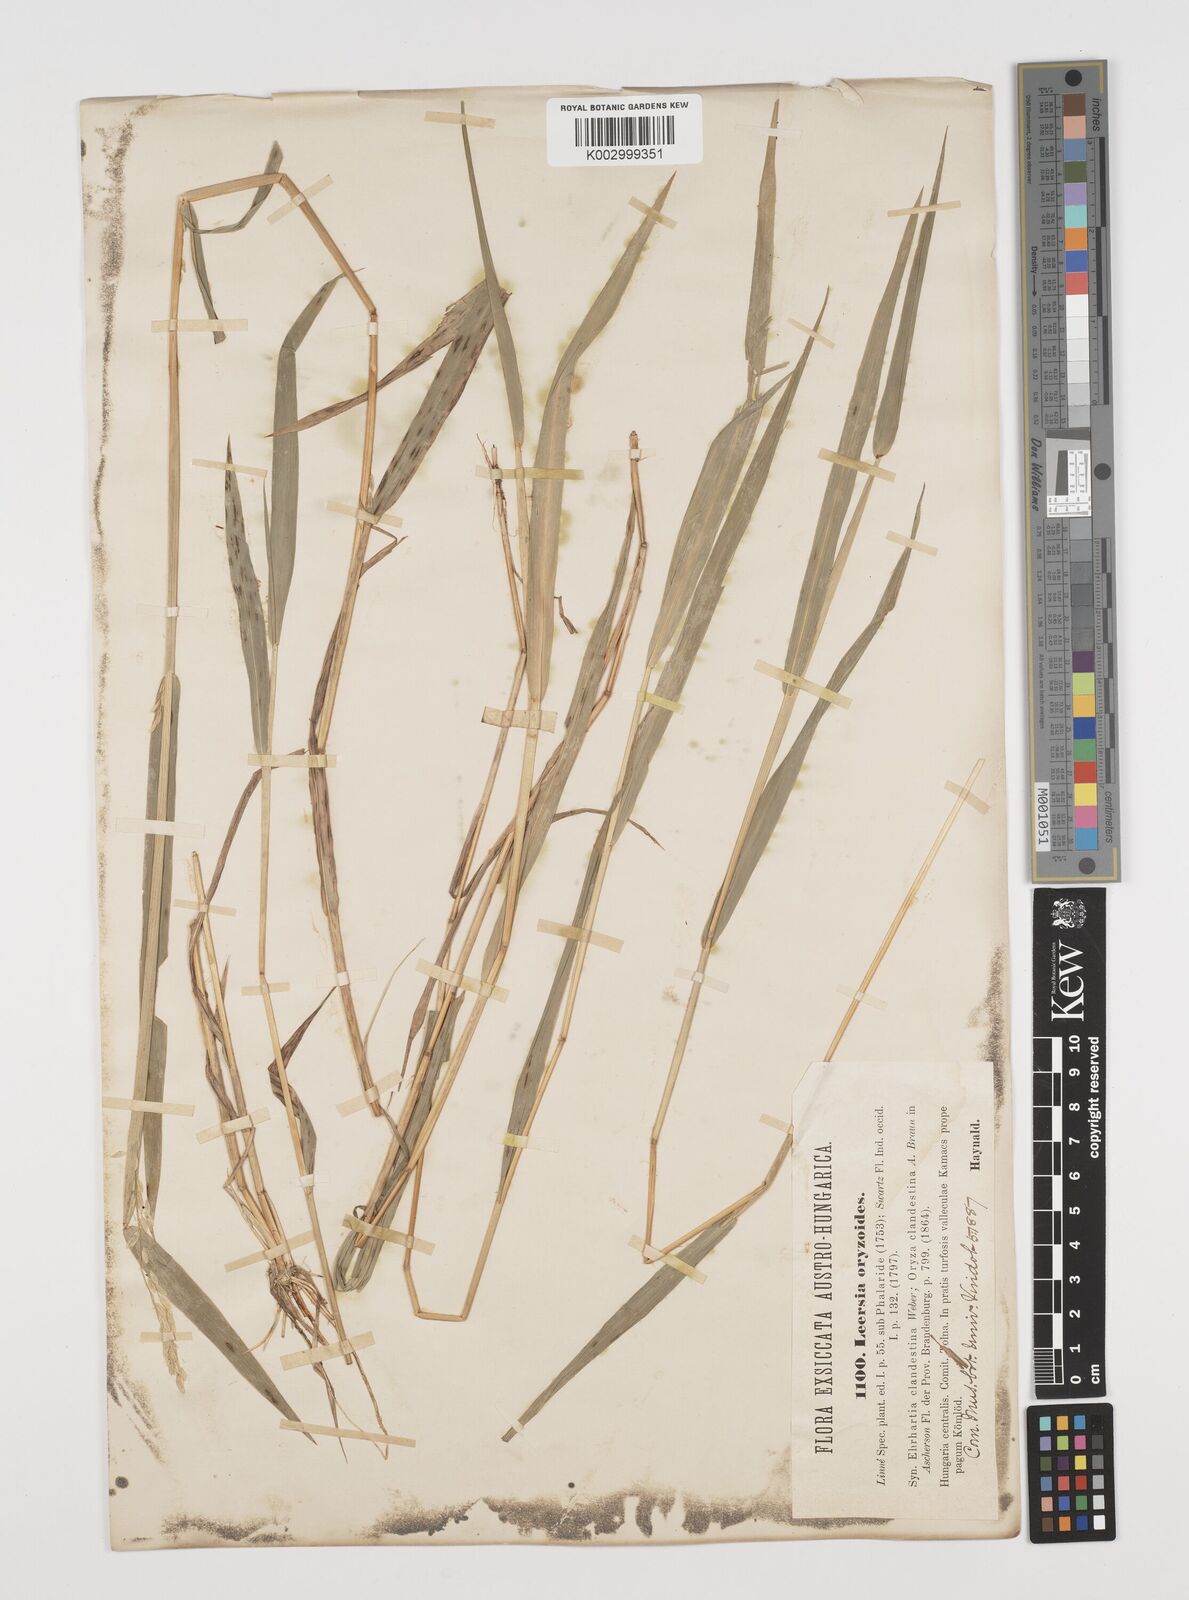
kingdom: Plantae
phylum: Tracheophyta
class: Liliopsida
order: Poales
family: Poaceae
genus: Leersia
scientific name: Leersia oryzoides
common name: Cut-grass
